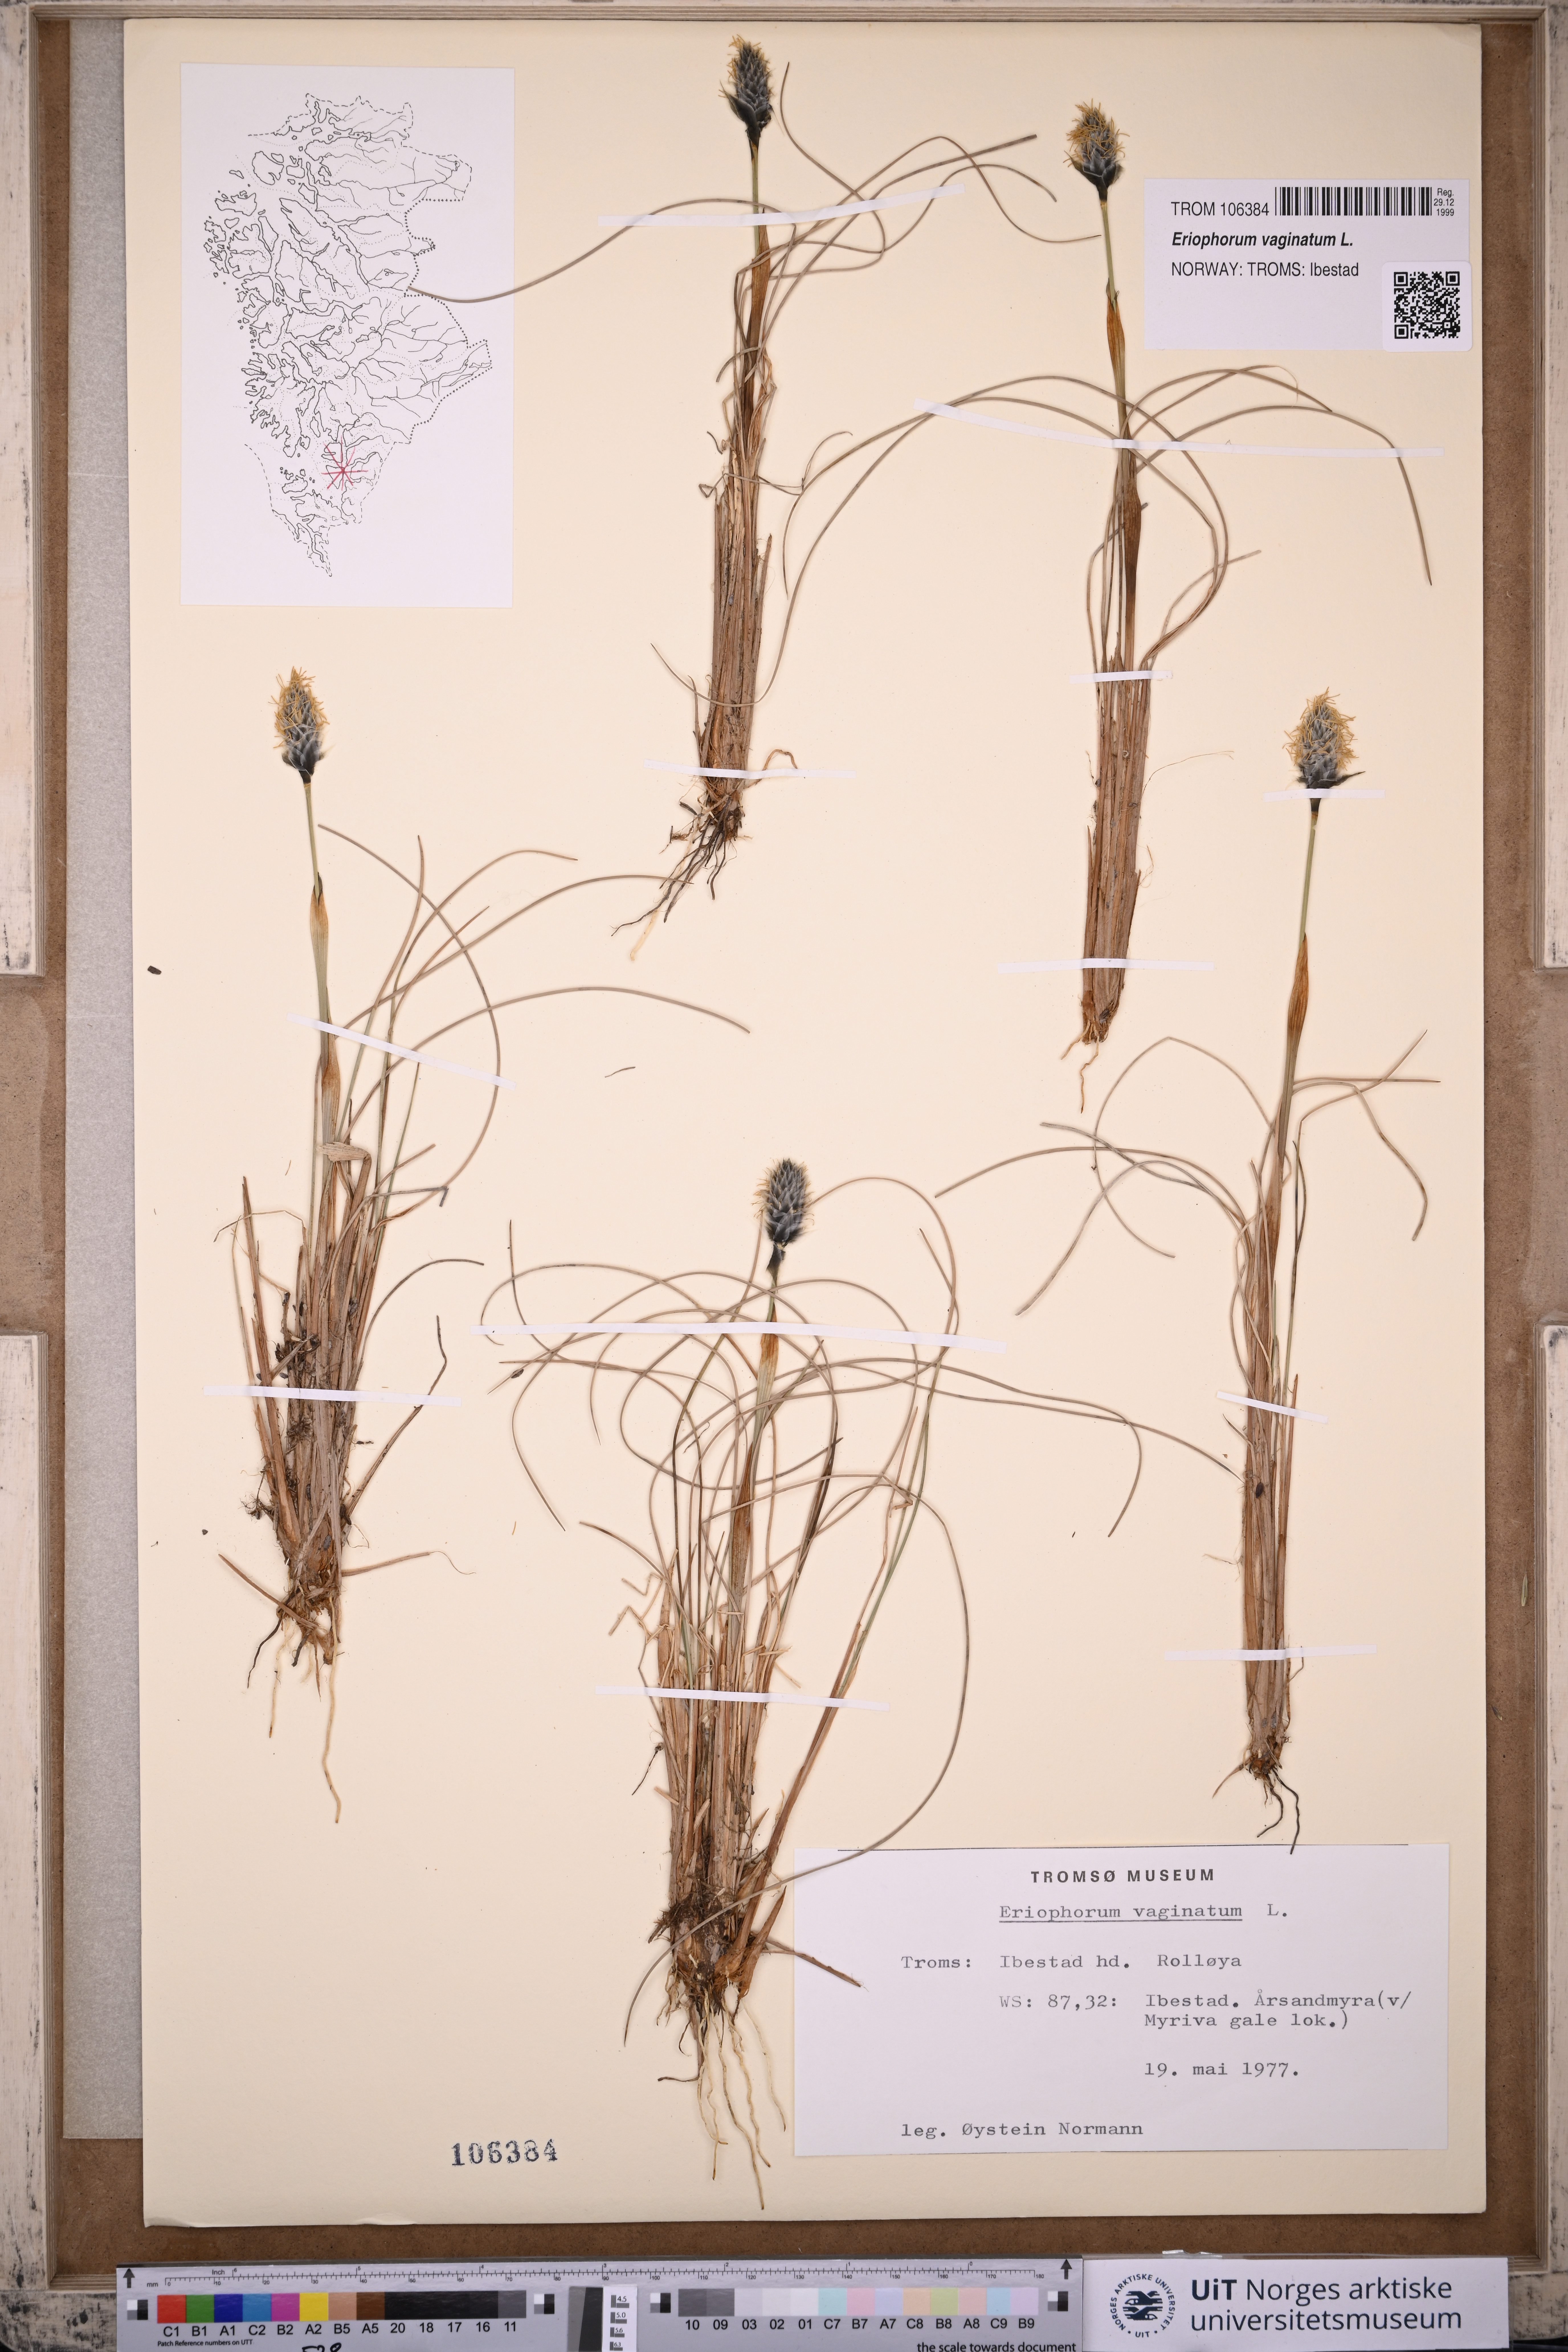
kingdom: Plantae
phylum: Tracheophyta
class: Liliopsida
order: Poales
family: Cyperaceae
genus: Eriophorum
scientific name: Eriophorum vaginatum
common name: Hare's-tail cottongrass
